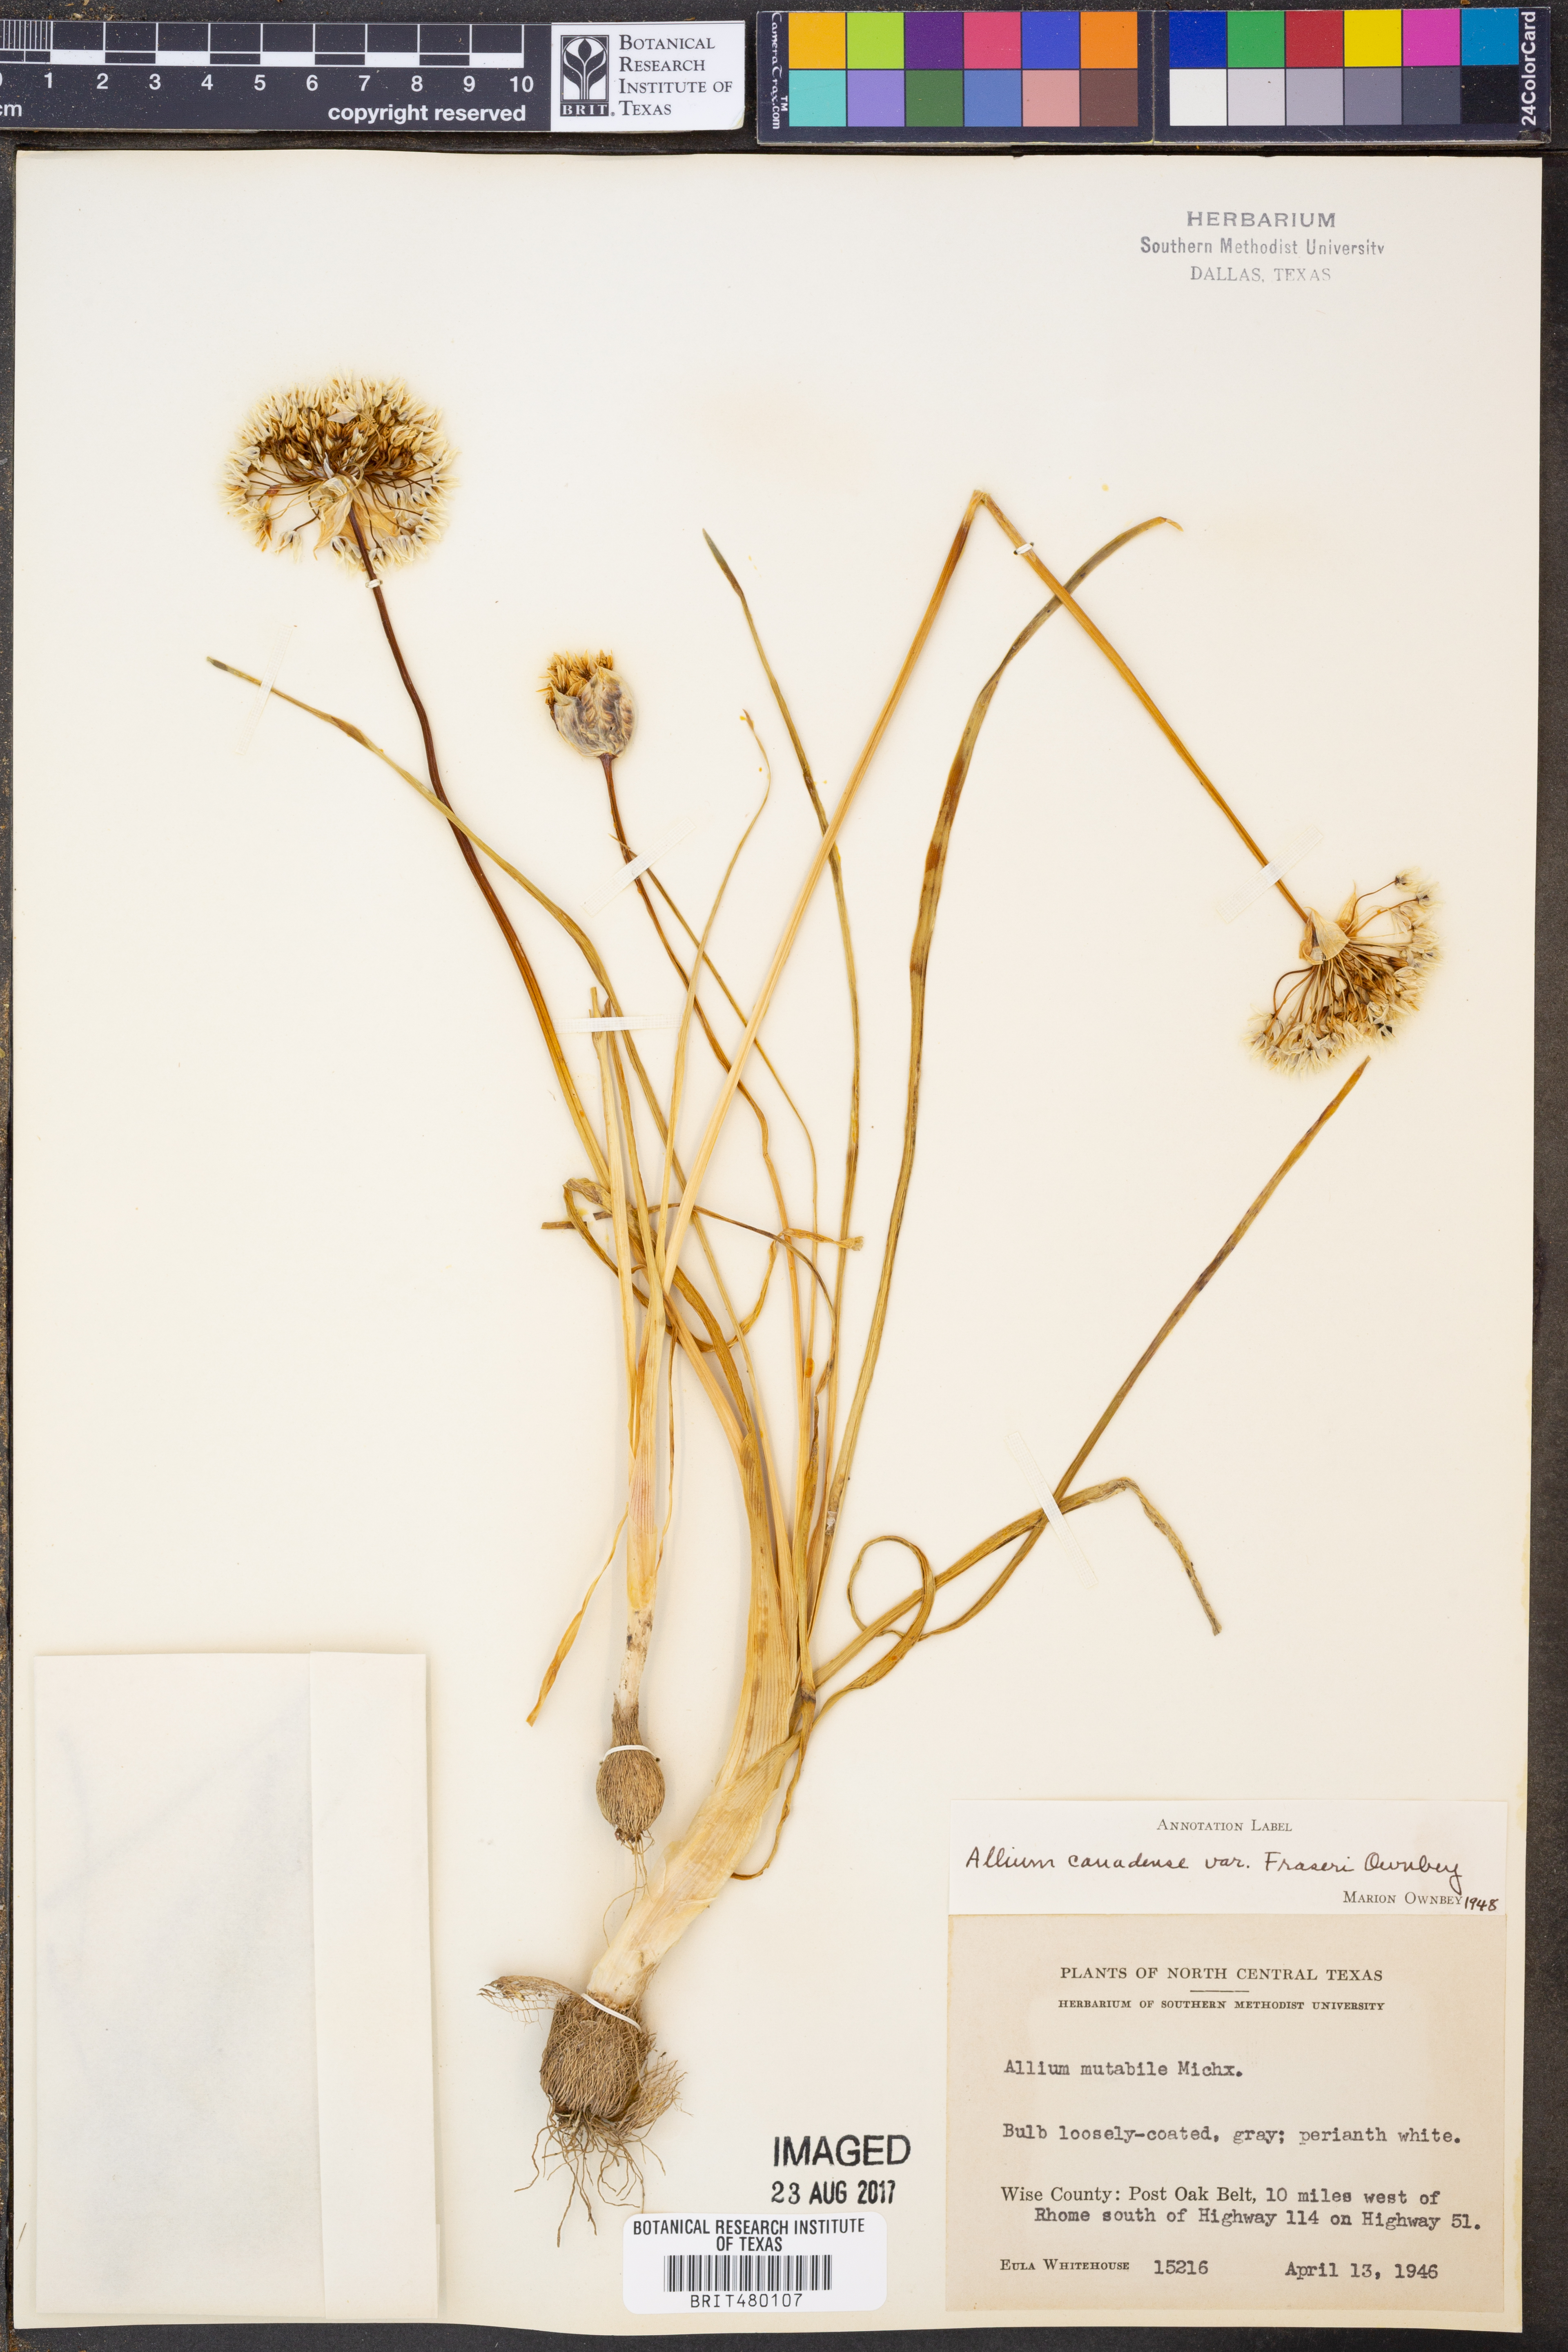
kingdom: Plantae
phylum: Tracheophyta
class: Liliopsida
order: Asparagales
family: Amaryllidaceae
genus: Allium
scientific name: Allium fraseri
